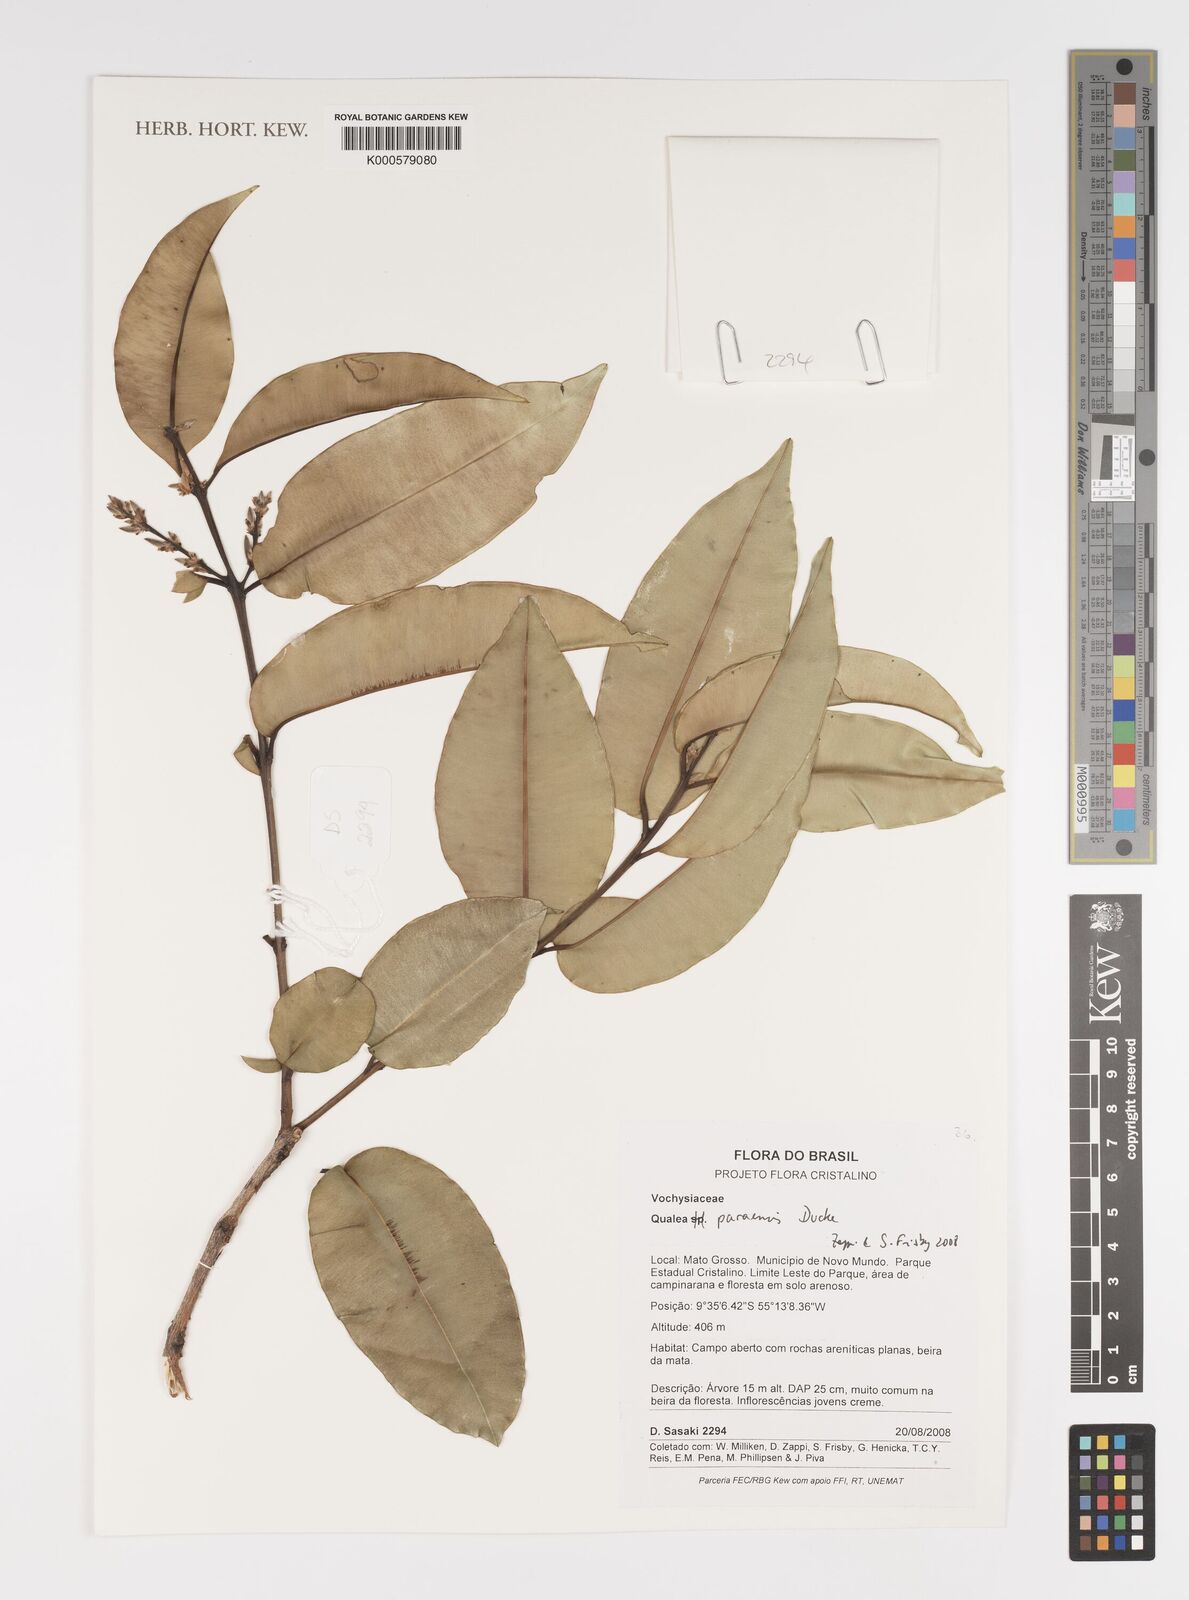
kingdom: Plantae
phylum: Tracheophyta
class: Magnoliopsida
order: Myrtales
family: Vochysiaceae
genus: Qualea
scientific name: Qualea paraensis
